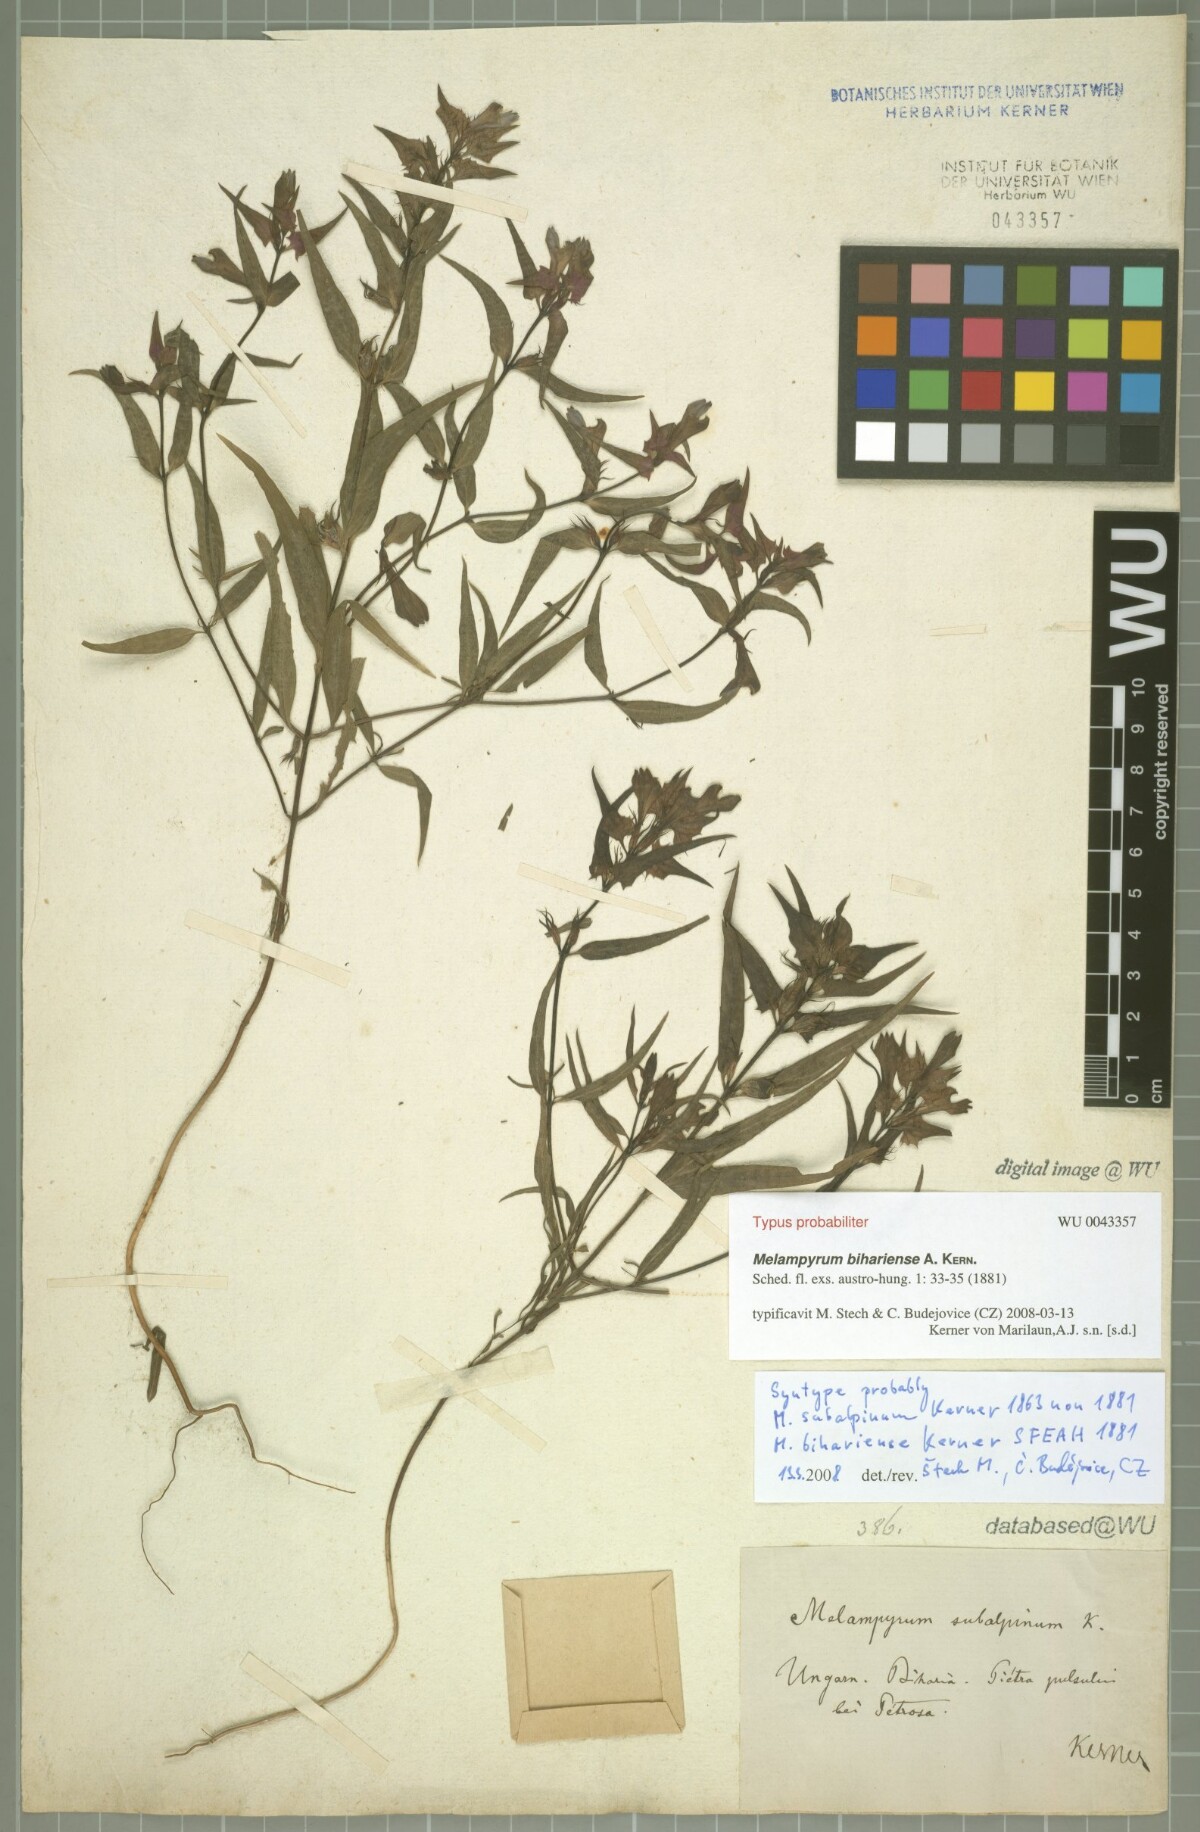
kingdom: Plantae
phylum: Tracheophyta
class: Magnoliopsida
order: Lamiales
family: Orobanchaceae
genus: Melampyrum
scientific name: Melampyrum bihariense
